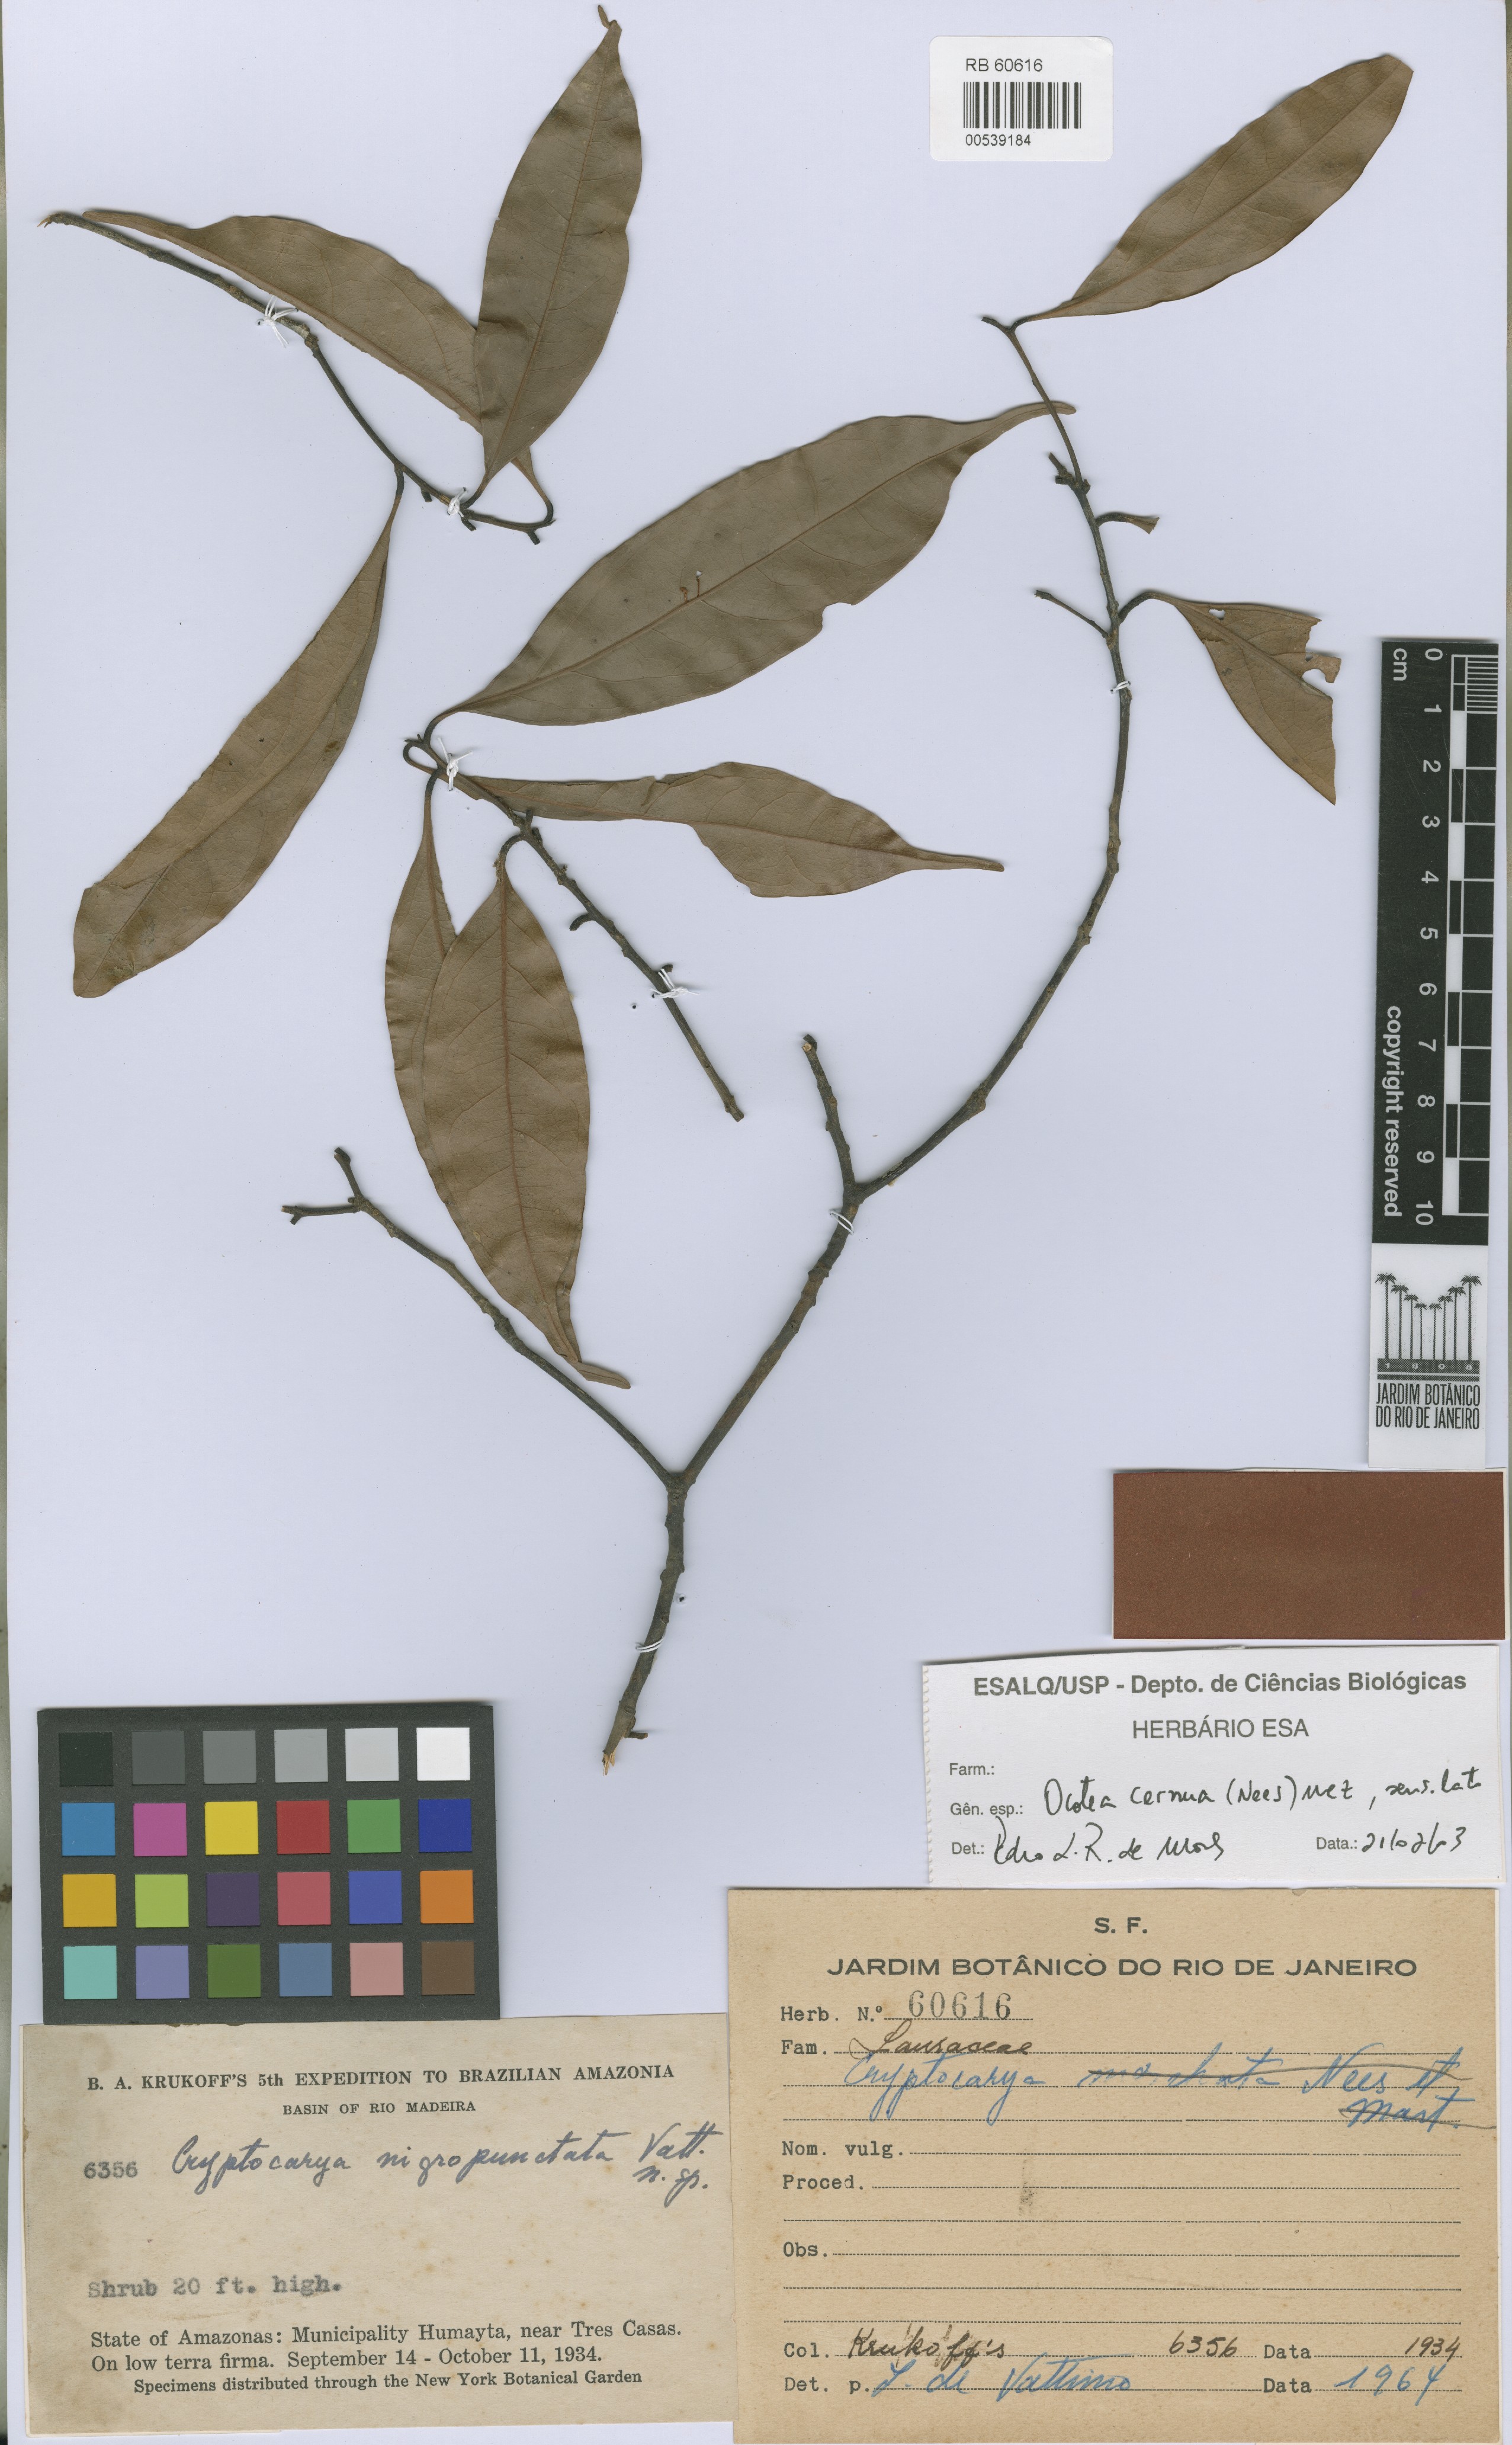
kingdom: Plantae
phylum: Tracheophyta
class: Magnoliopsida
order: Laurales
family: Lauraceae
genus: Cryptocarya
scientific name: Cryptocarya guianensis
